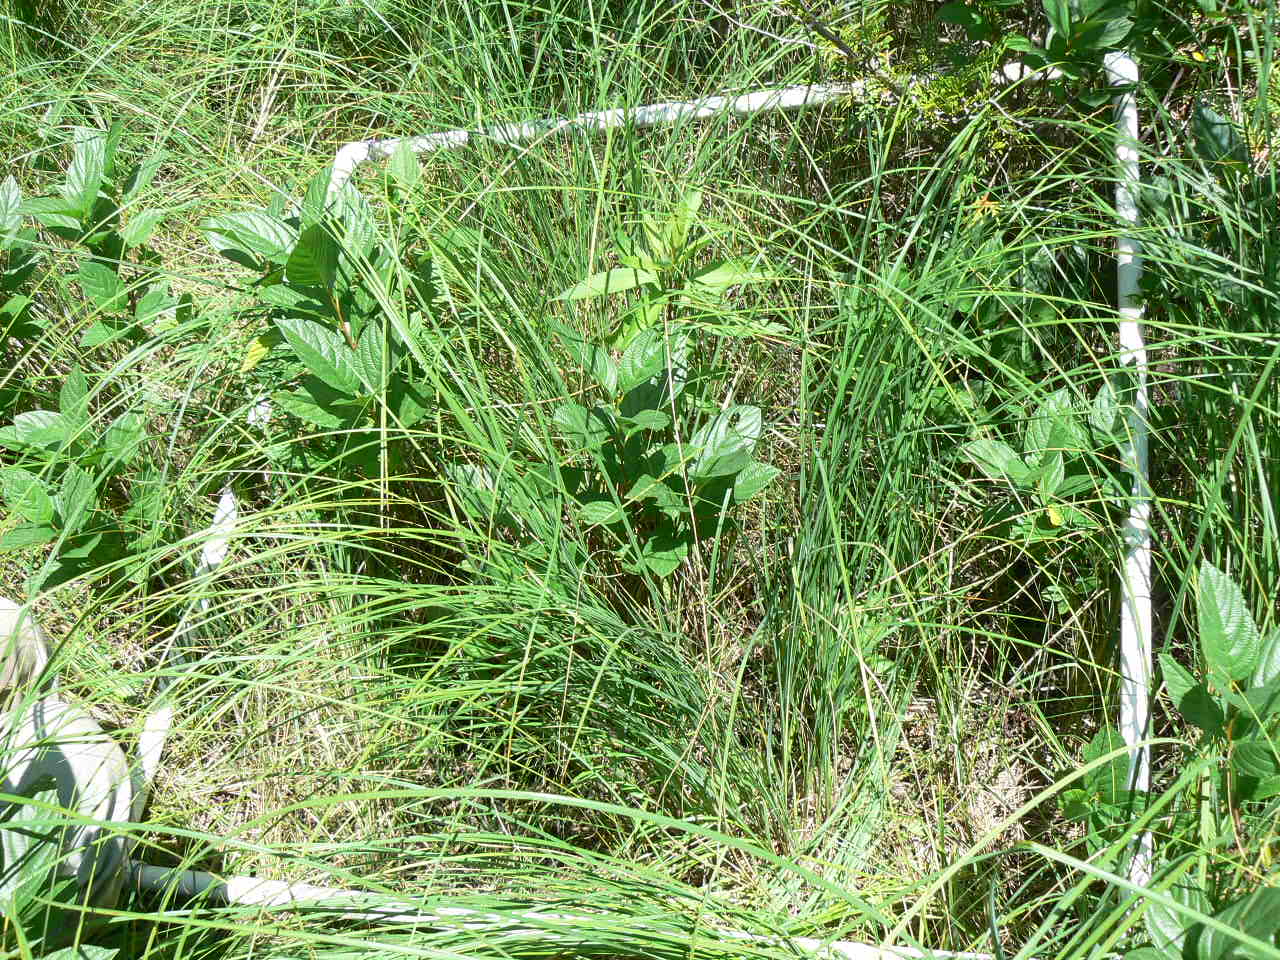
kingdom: Plantae
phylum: Tracheophyta
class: Magnoliopsida
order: Rosales
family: Rhamnaceae
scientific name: Rhamnaceae
